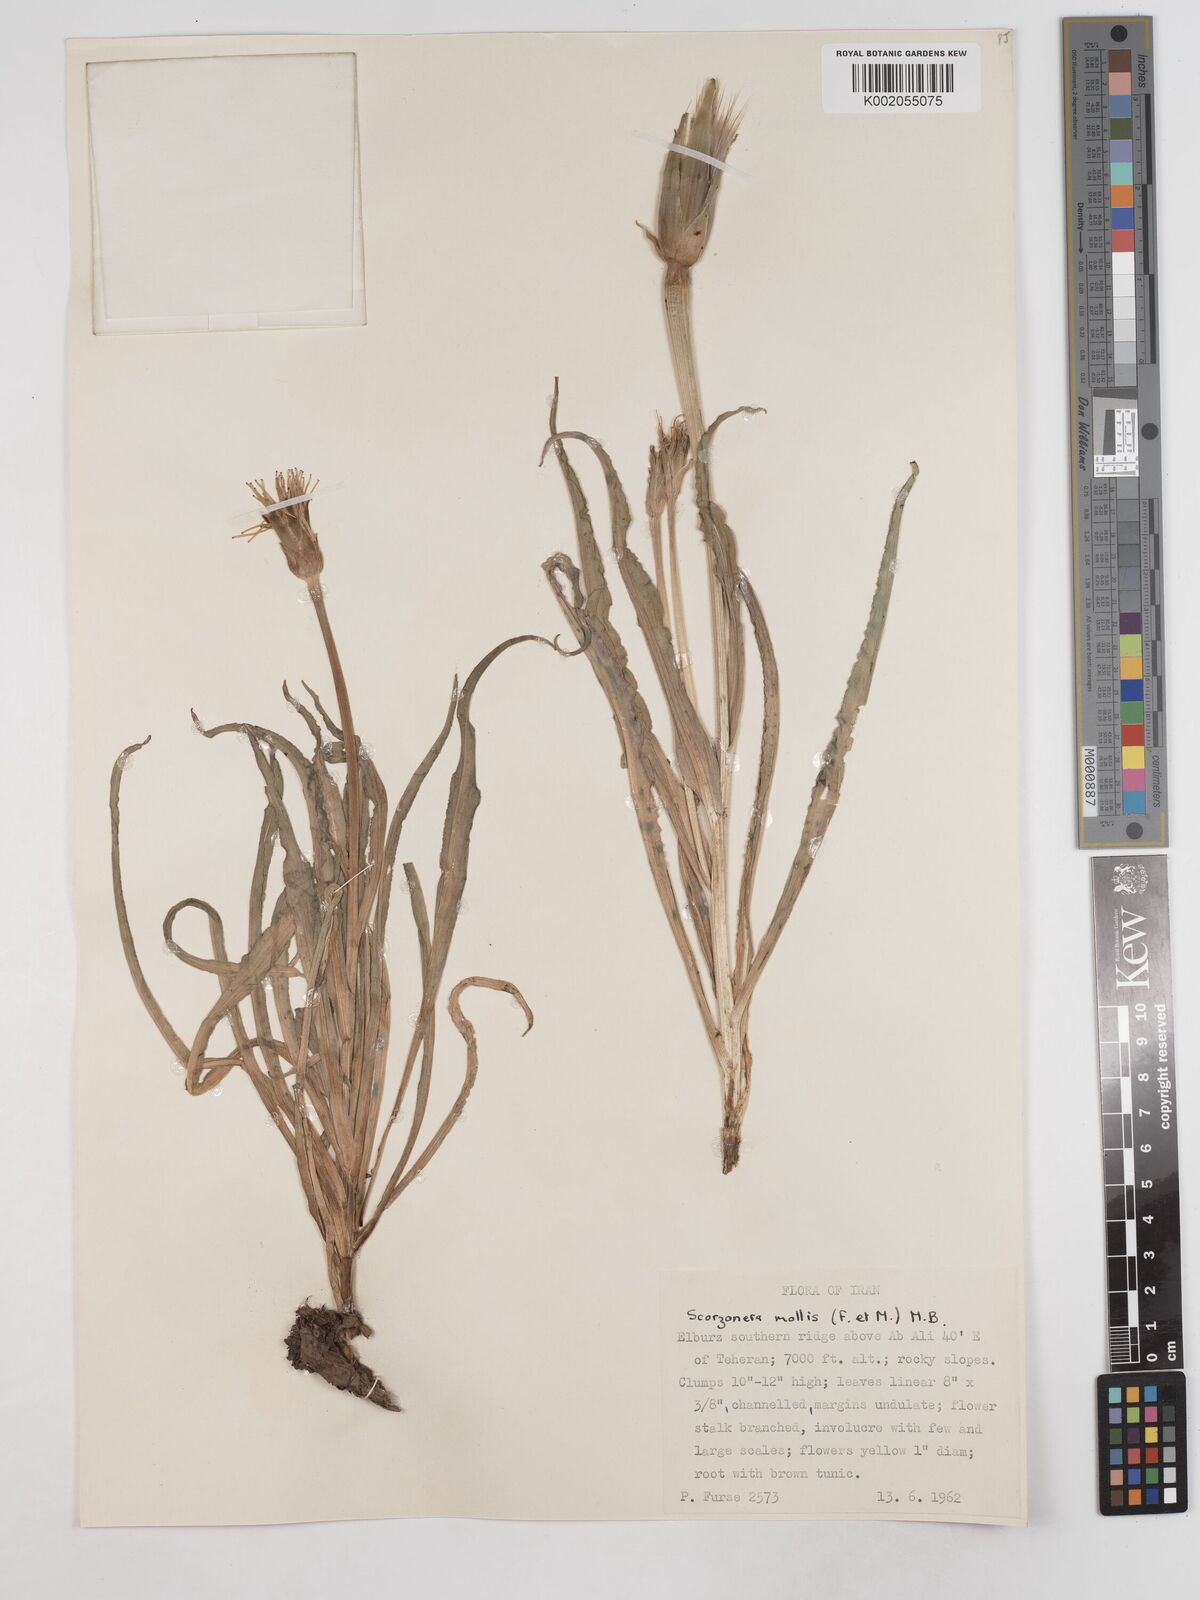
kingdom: Plantae
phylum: Tracheophyta
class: Magnoliopsida
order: Asterales
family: Asteraceae
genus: Candollea
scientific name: Candollea mollis
